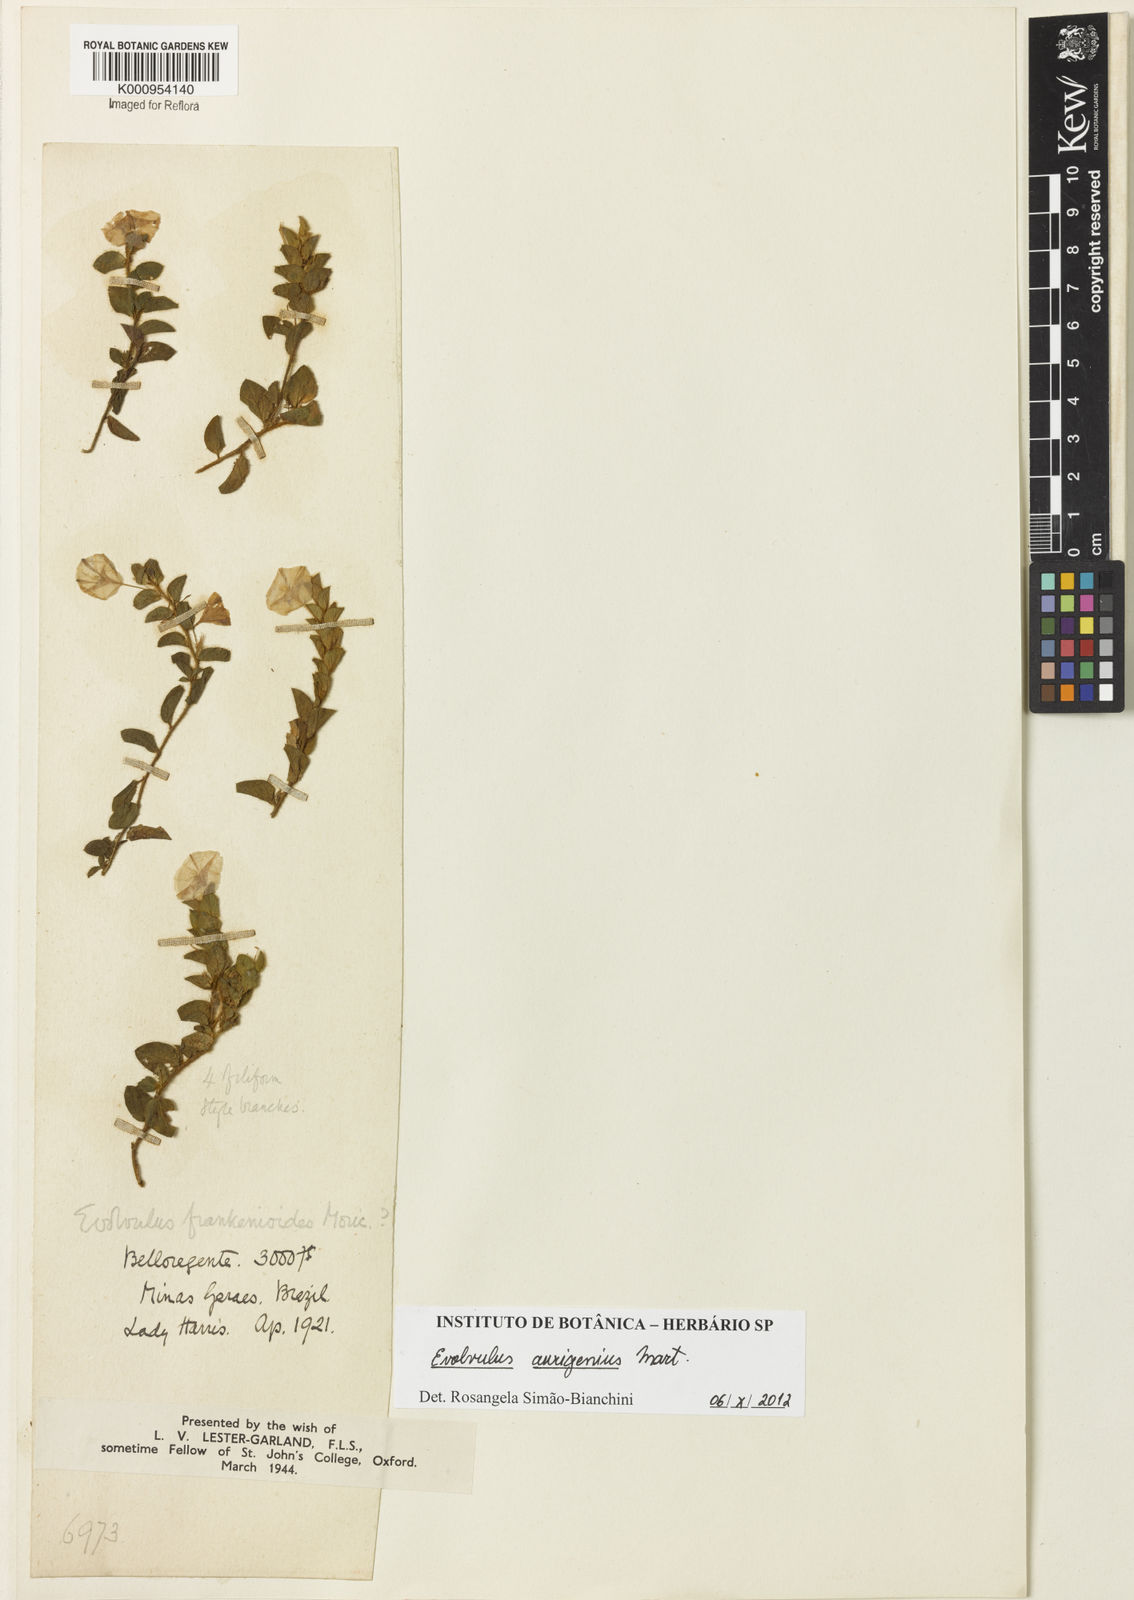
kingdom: Plantae
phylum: Tracheophyta
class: Magnoliopsida
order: Solanales
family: Convolvulaceae
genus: Evolvulus
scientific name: Evolvulus barbatus
